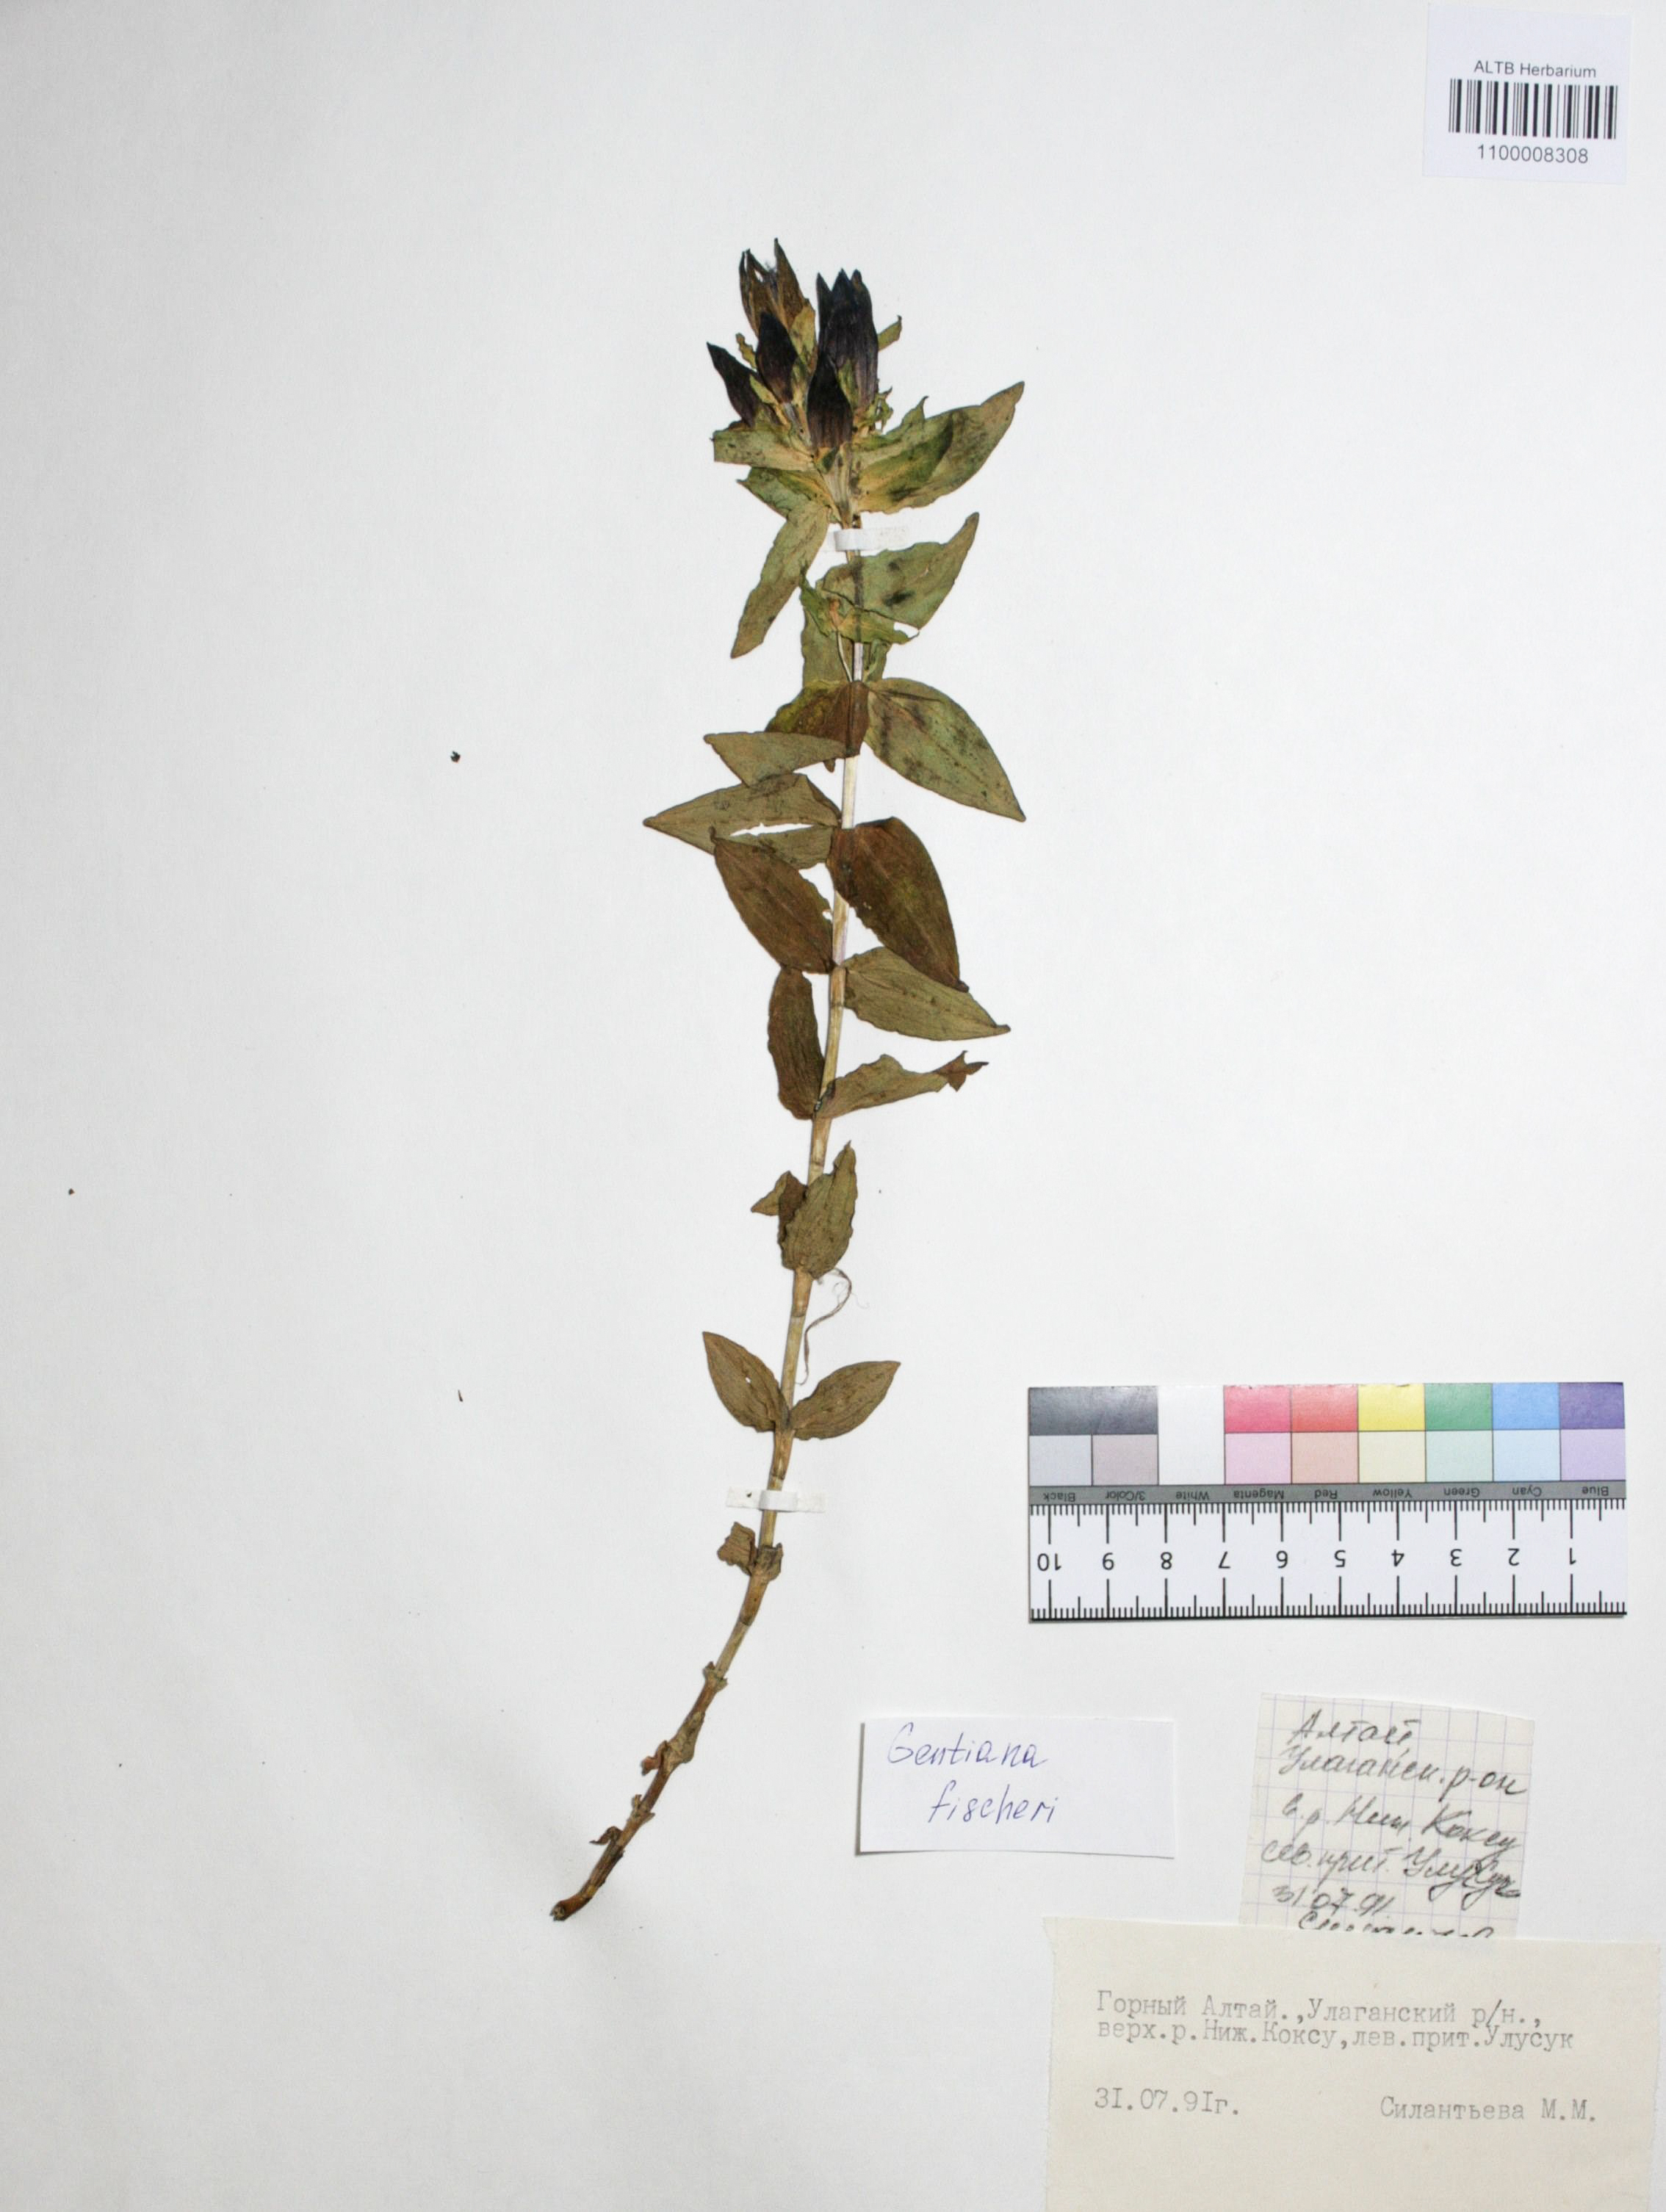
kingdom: Plantae
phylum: Tracheophyta
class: Magnoliopsida
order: Gentianales
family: Gentianaceae
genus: Gentiana
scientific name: Gentiana dschungarica
